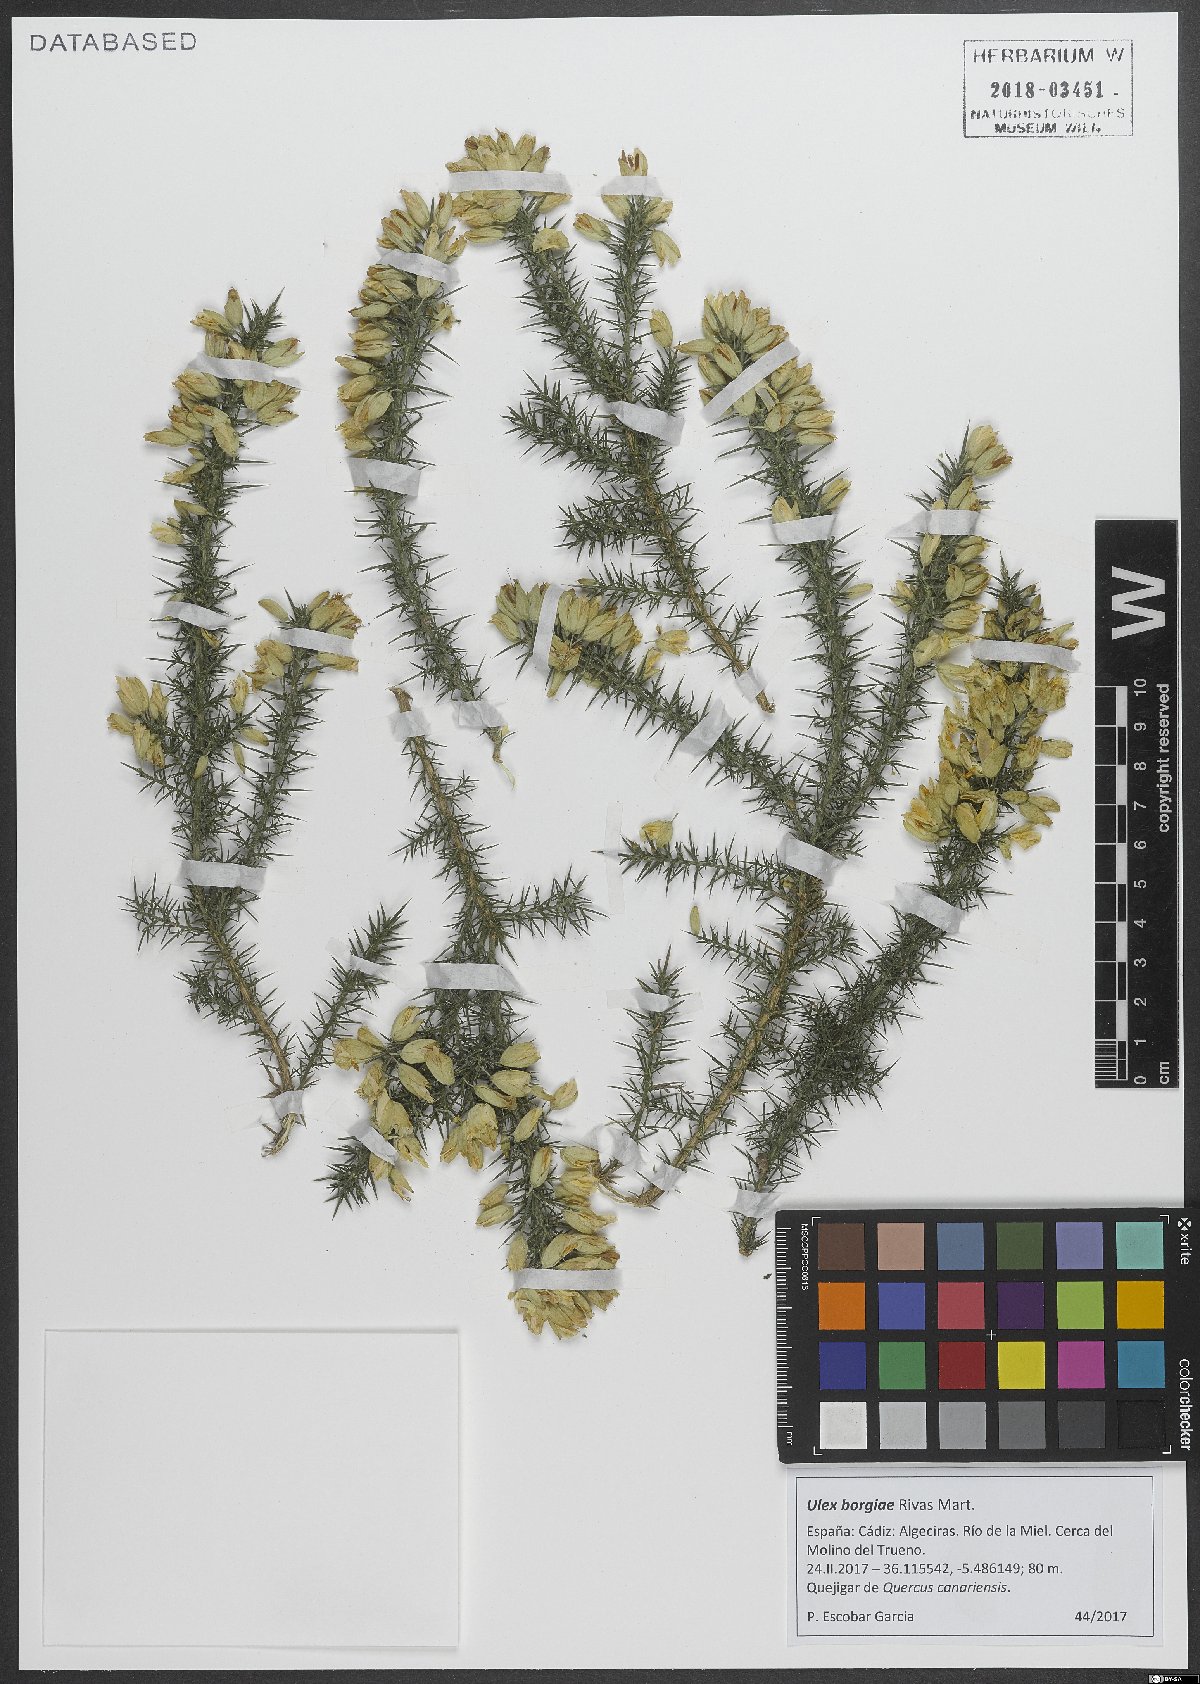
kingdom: Plantae
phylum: Tracheophyta
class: Magnoliopsida
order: Fabales
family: Fabaceae
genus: Ulex
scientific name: Ulex borgiae
